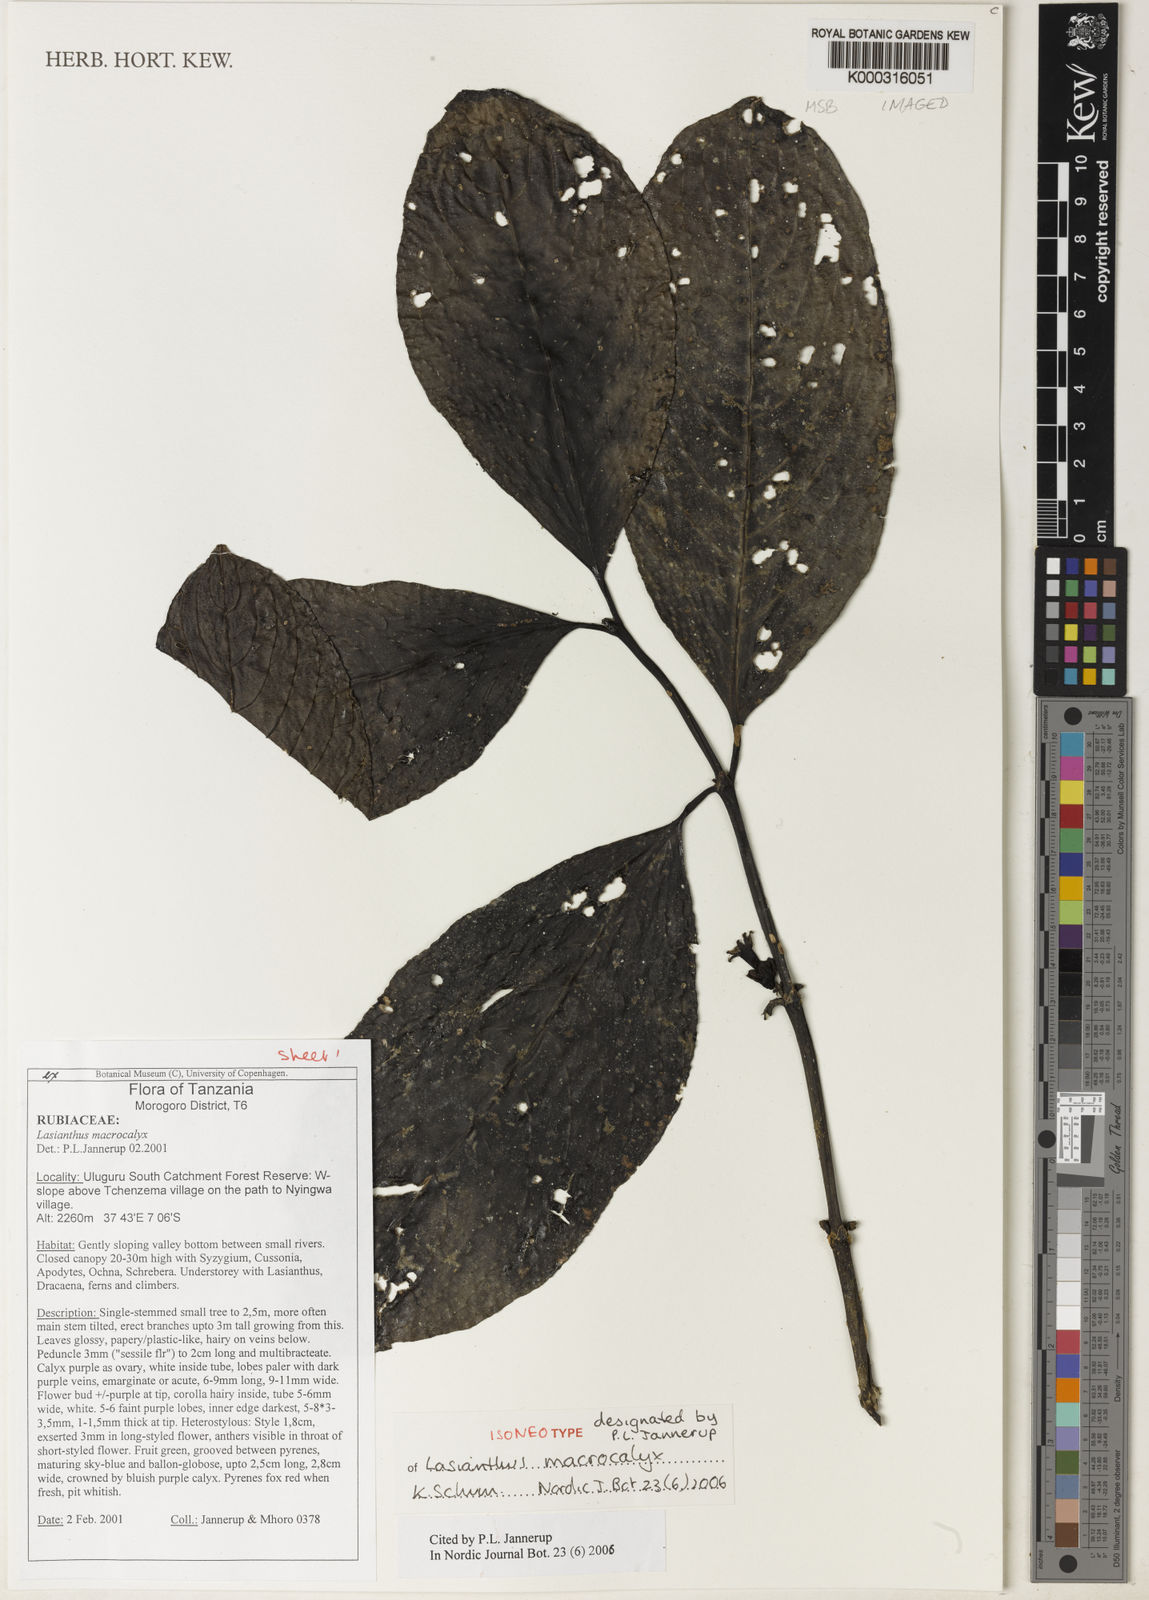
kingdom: Plantae
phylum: Tracheophyta
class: Magnoliopsida
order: Fabales
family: Fabaceae
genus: Astragalus
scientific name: Astragalus
